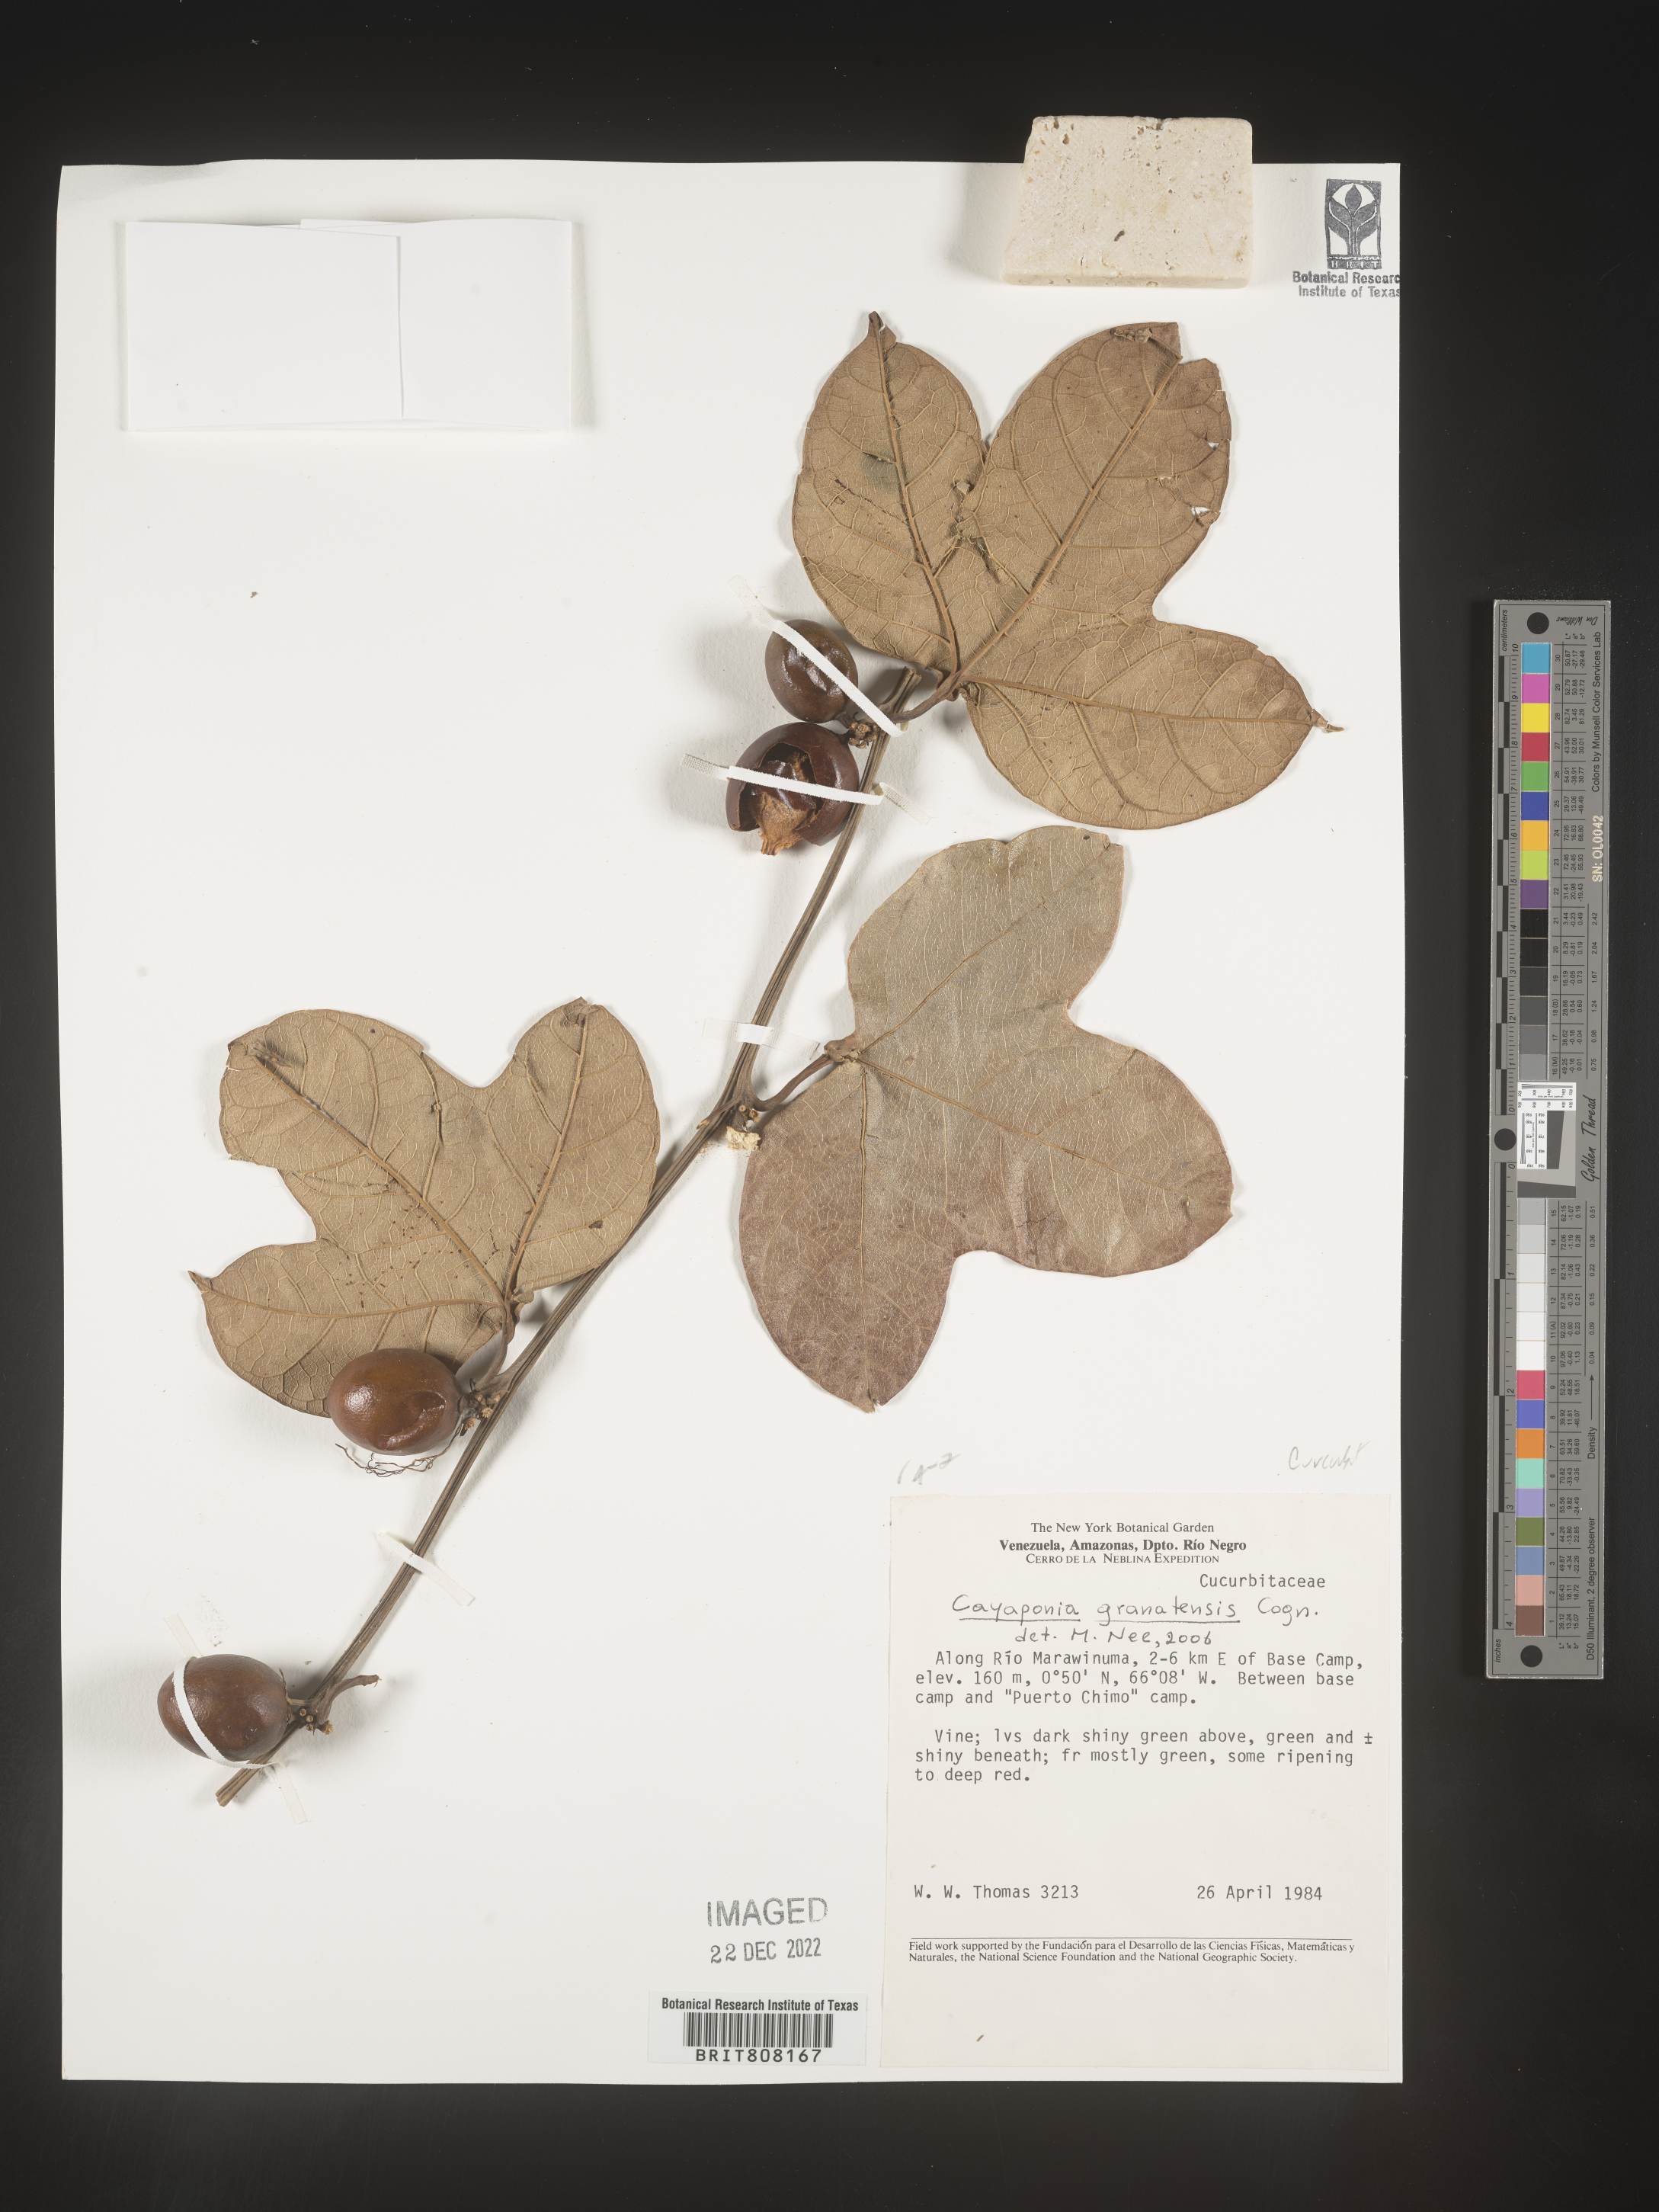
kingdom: Plantae
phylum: Tracheophyta
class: Magnoliopsida
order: Cucurbitales
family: Cucurbitaceae
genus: Cayaponia
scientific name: Cayaponia
